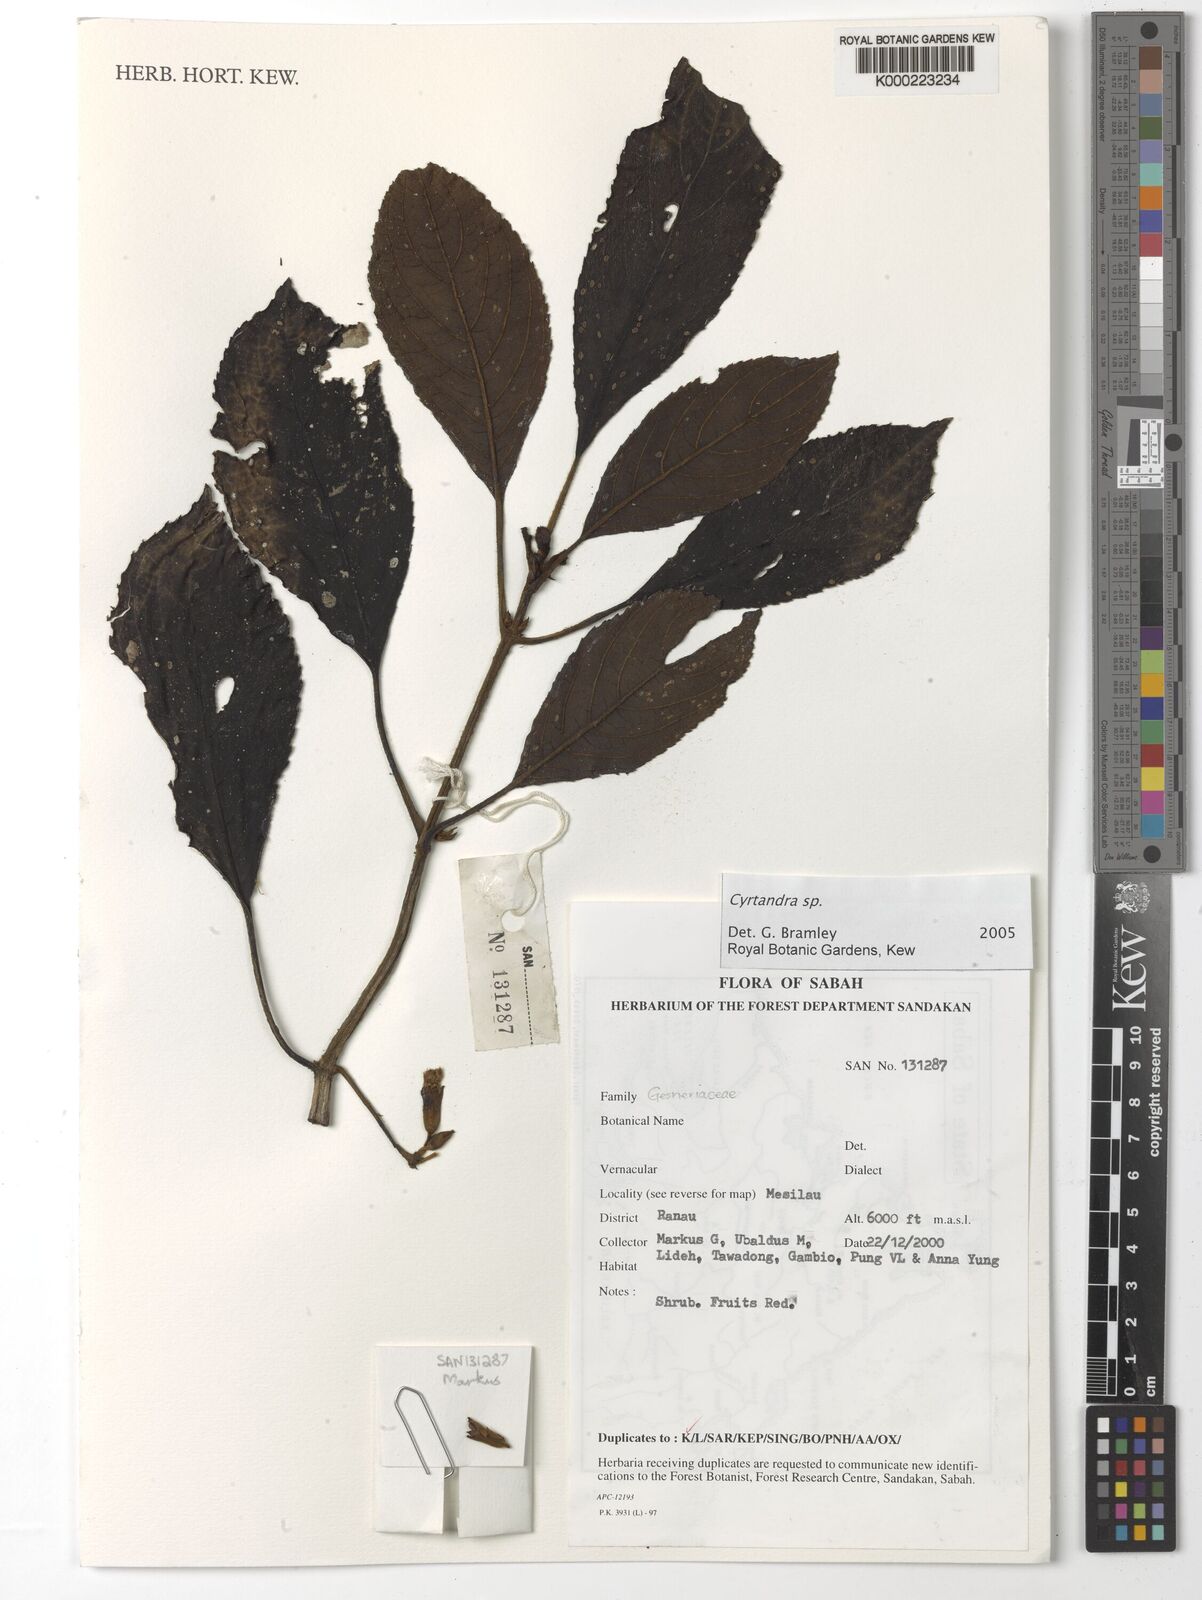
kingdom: Plantae
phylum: Tracheophyta
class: Magnoliopsida
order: Lamiales
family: Gesneriaceae
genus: Cyrtandra
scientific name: Cyrtandra
